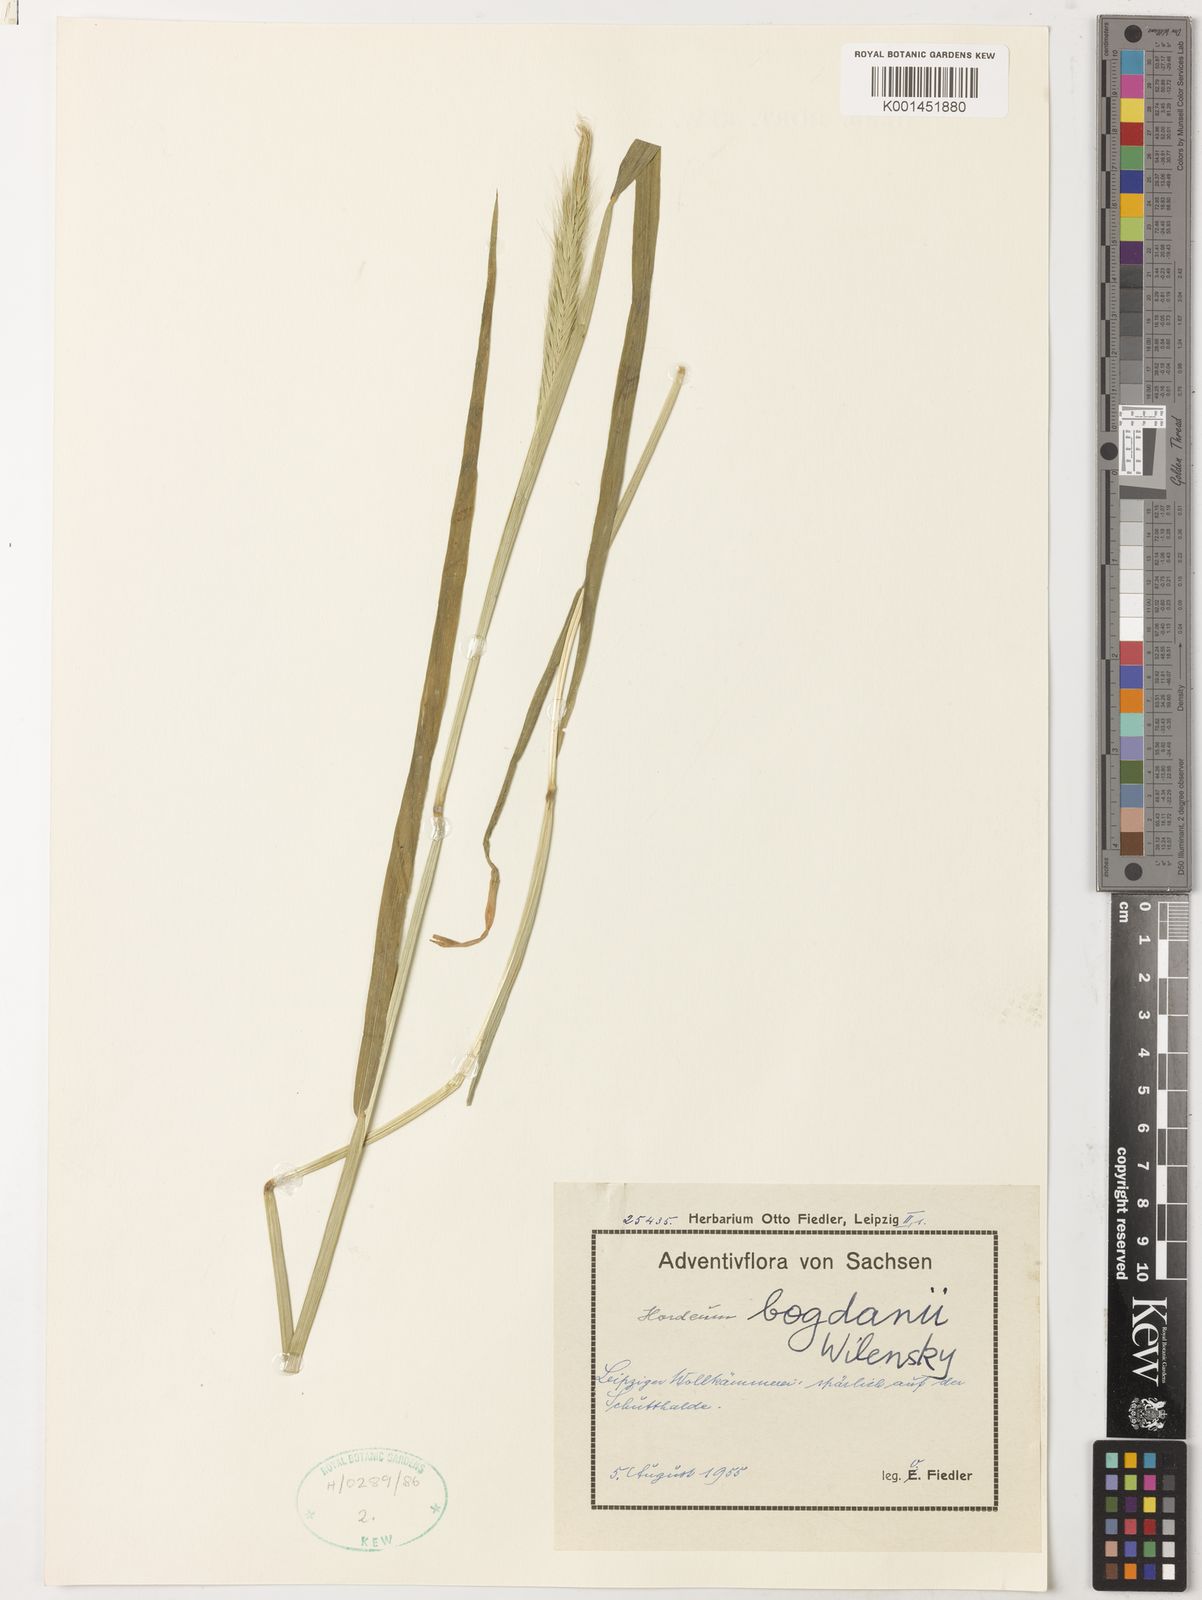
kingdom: Plantae
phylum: Tracheophyta
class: Liliopsida
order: Poales
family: Poaceae
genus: Hordeum
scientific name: Hordeum bogdanii
